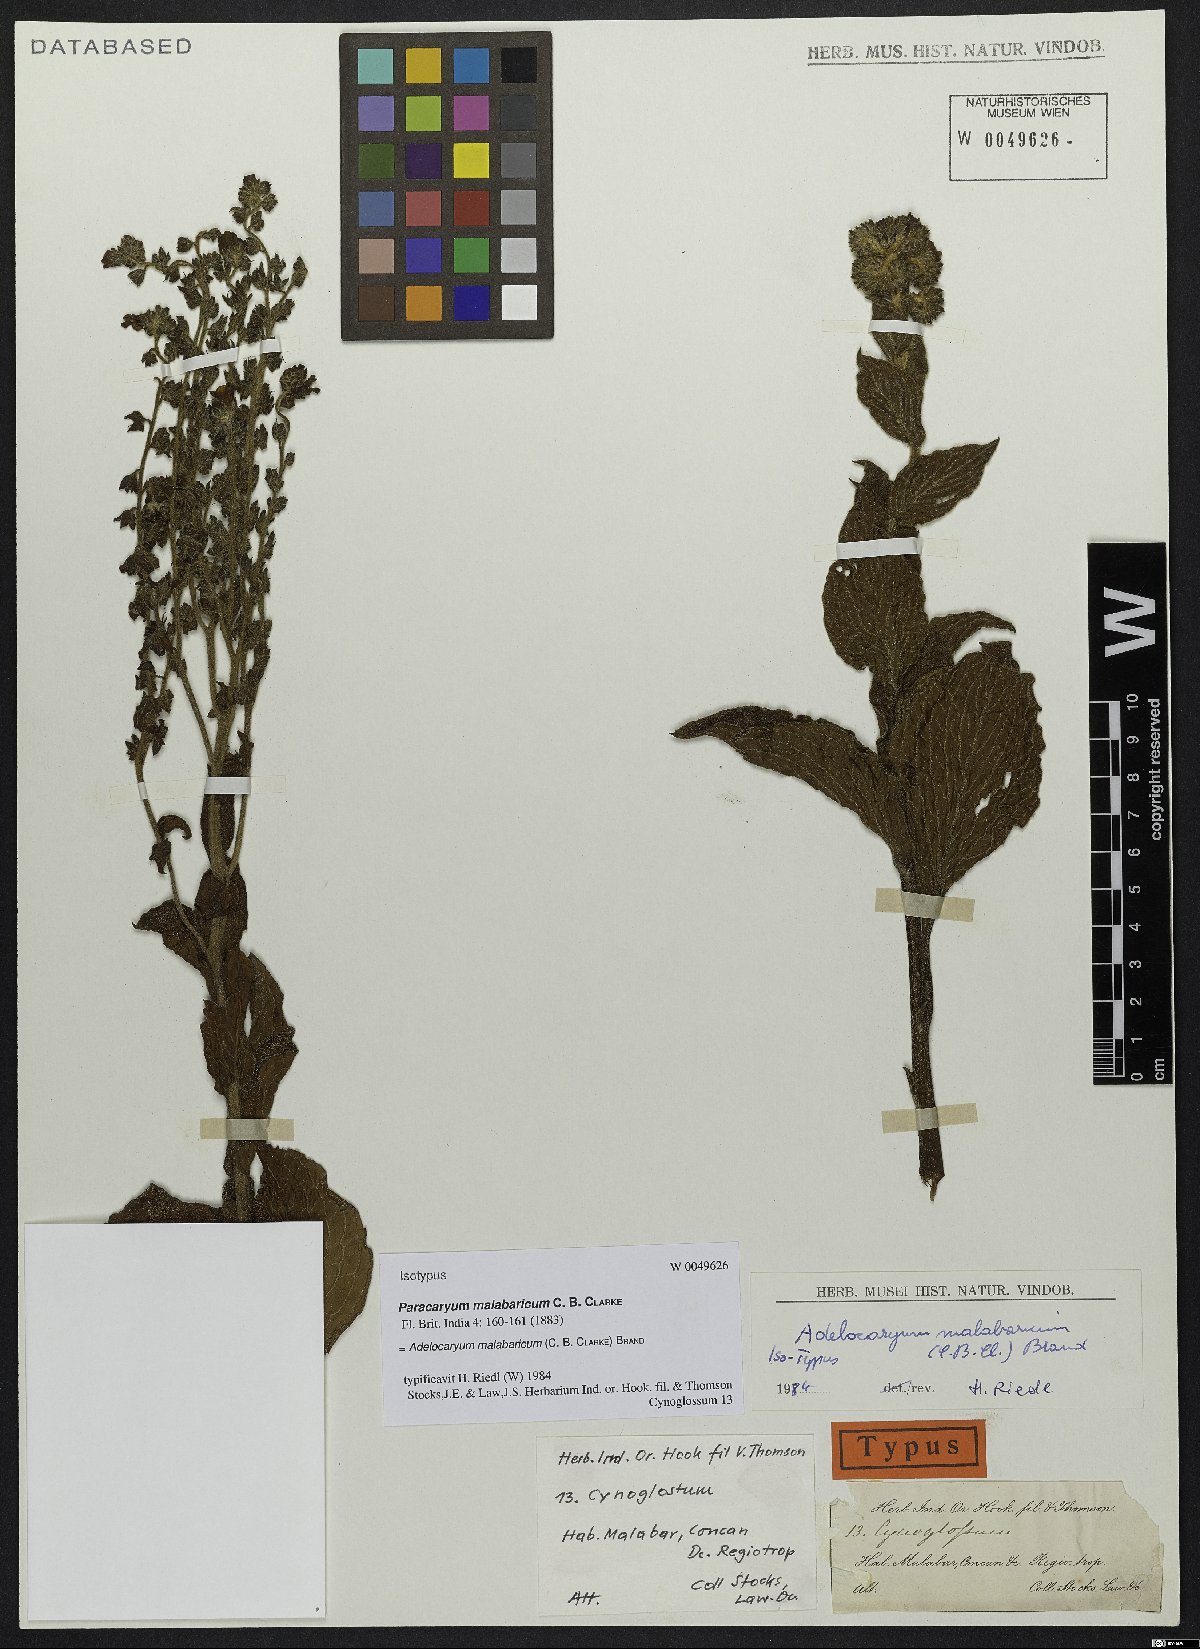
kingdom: Plantae
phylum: Tracheophyta
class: Magnoliopsida
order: Boraginales
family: Boraginaceae
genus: Paracaryum
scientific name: Paracaryum malabaricum
